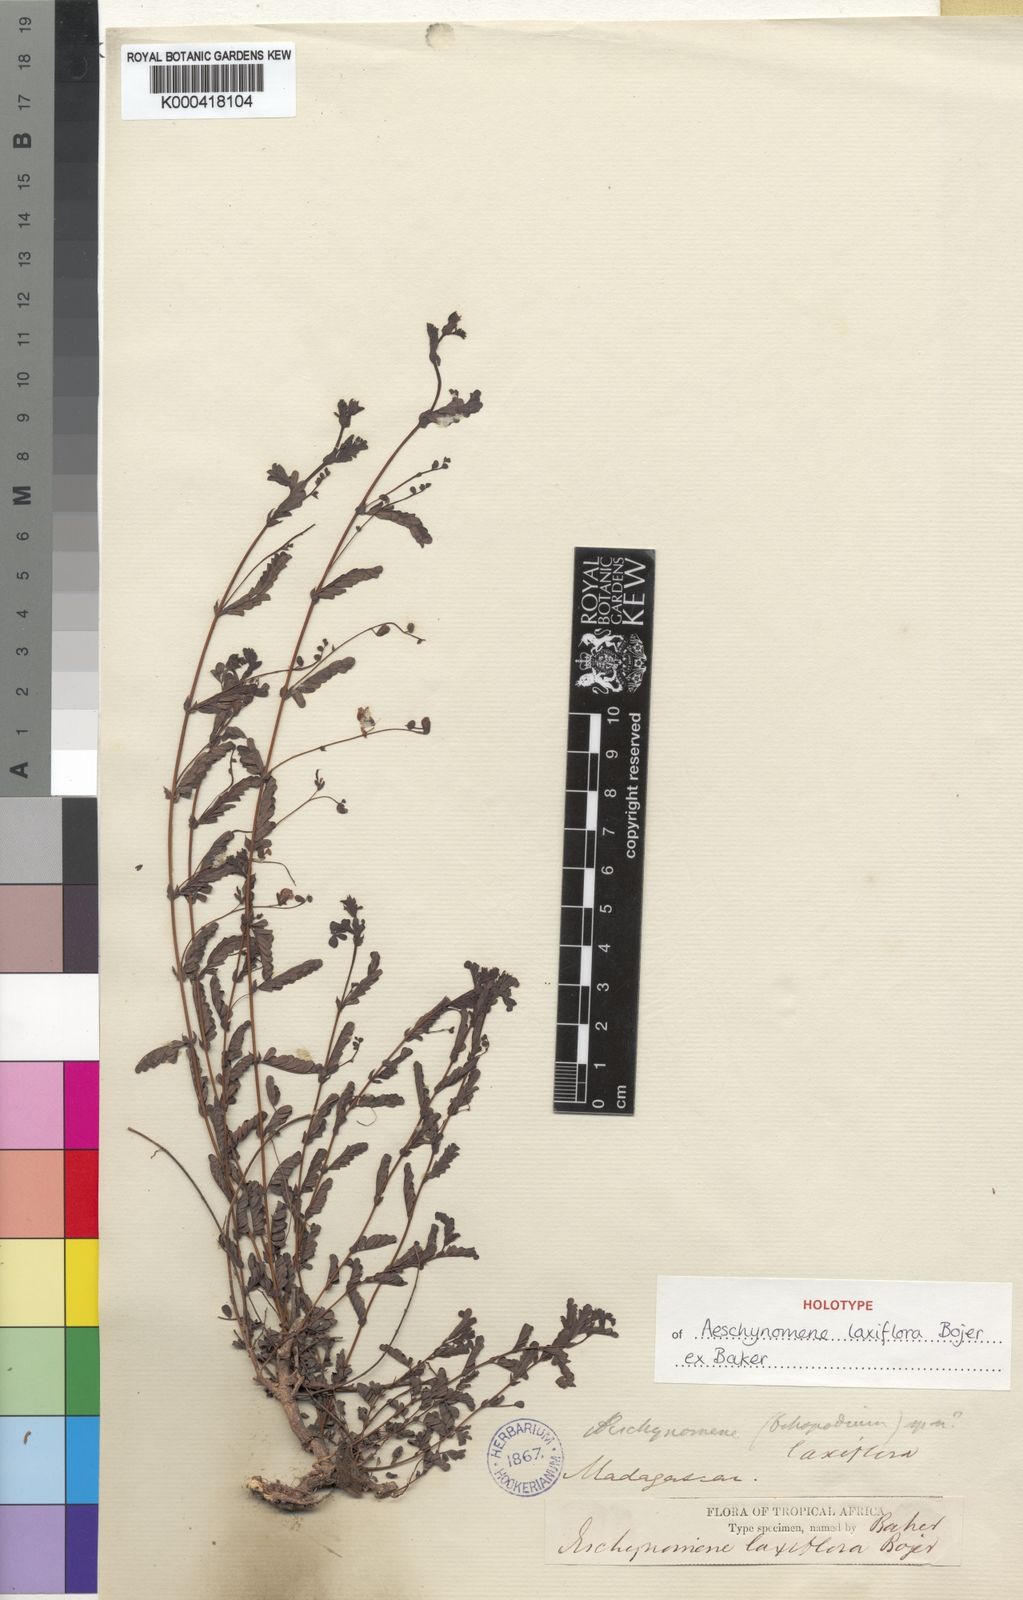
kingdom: Plantae
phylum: Tracheophyta
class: Magnoliopsida
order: Fabales
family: Fabaceae
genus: Aeschynomene
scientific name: Aeschynomene laxiflora
